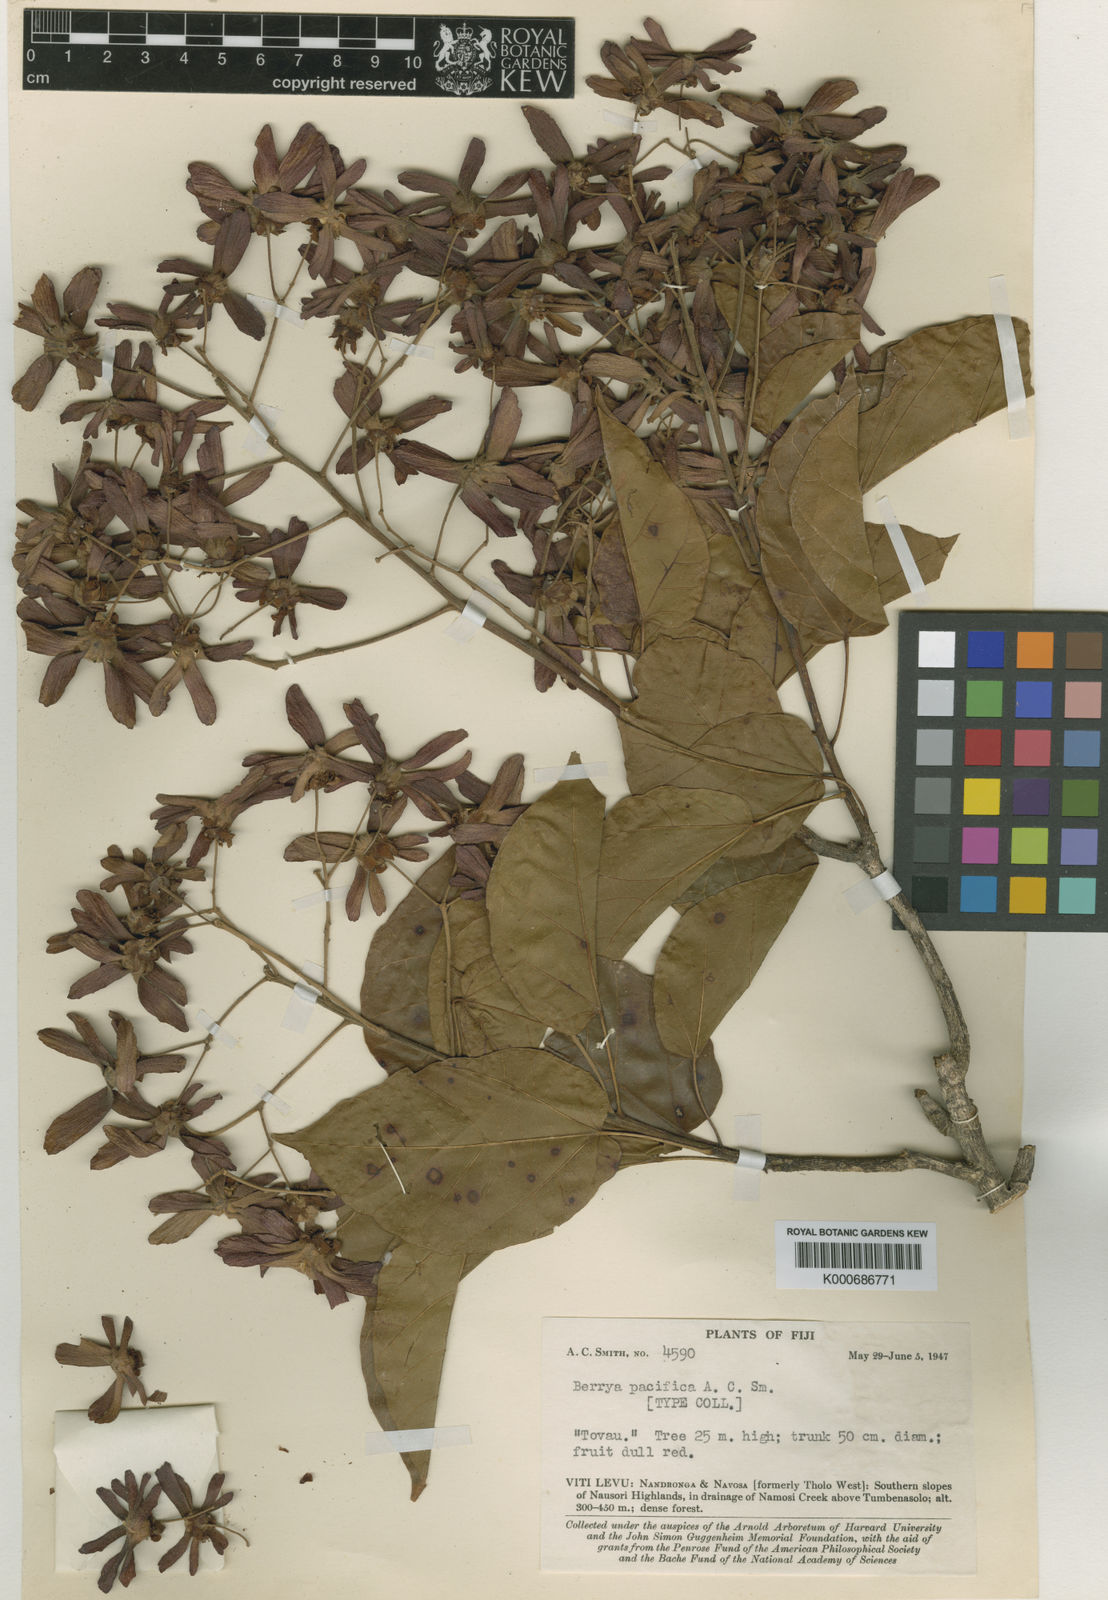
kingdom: Plantae
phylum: Tracheophyta
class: Magnoliopsida
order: Malvales
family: Malvaceae
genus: Berrya
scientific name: Berrya pacifica
